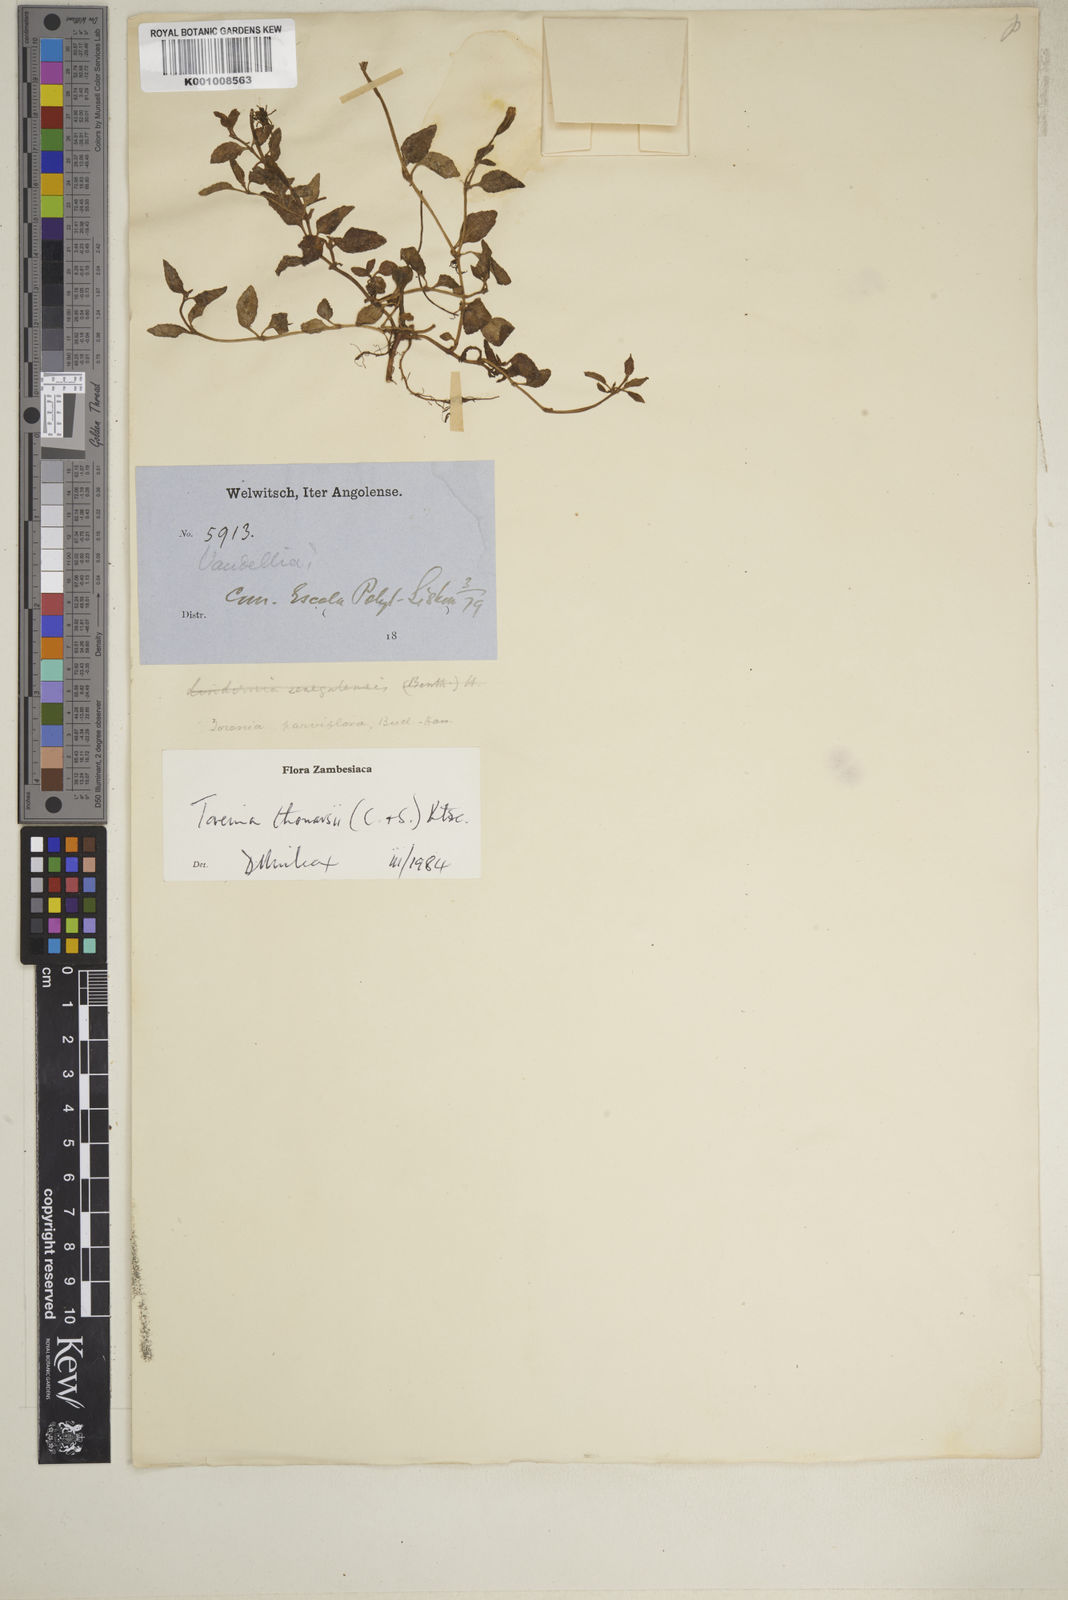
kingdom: Plantae
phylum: Tracheophyta
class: Magnoliopsida
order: Lamiales
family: Linderniaceae
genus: Torenia
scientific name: Torenia thouarsii
